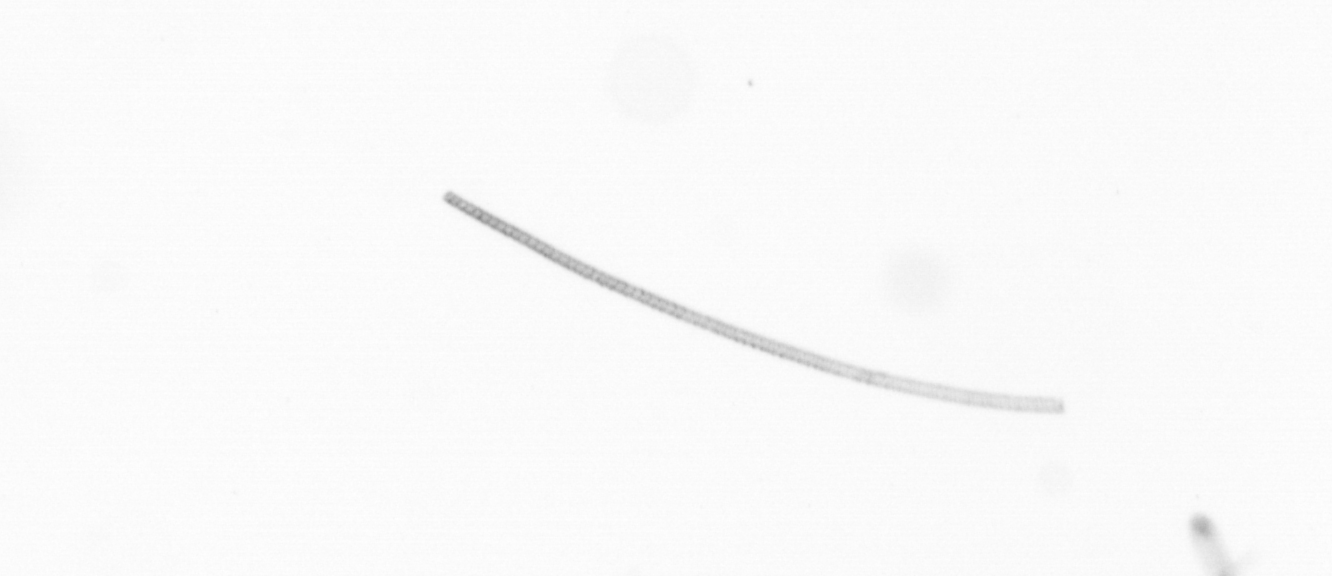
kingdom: Chromista
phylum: Ochrophyta
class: Bacillariophyceae
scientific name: Bacillariophyceae
